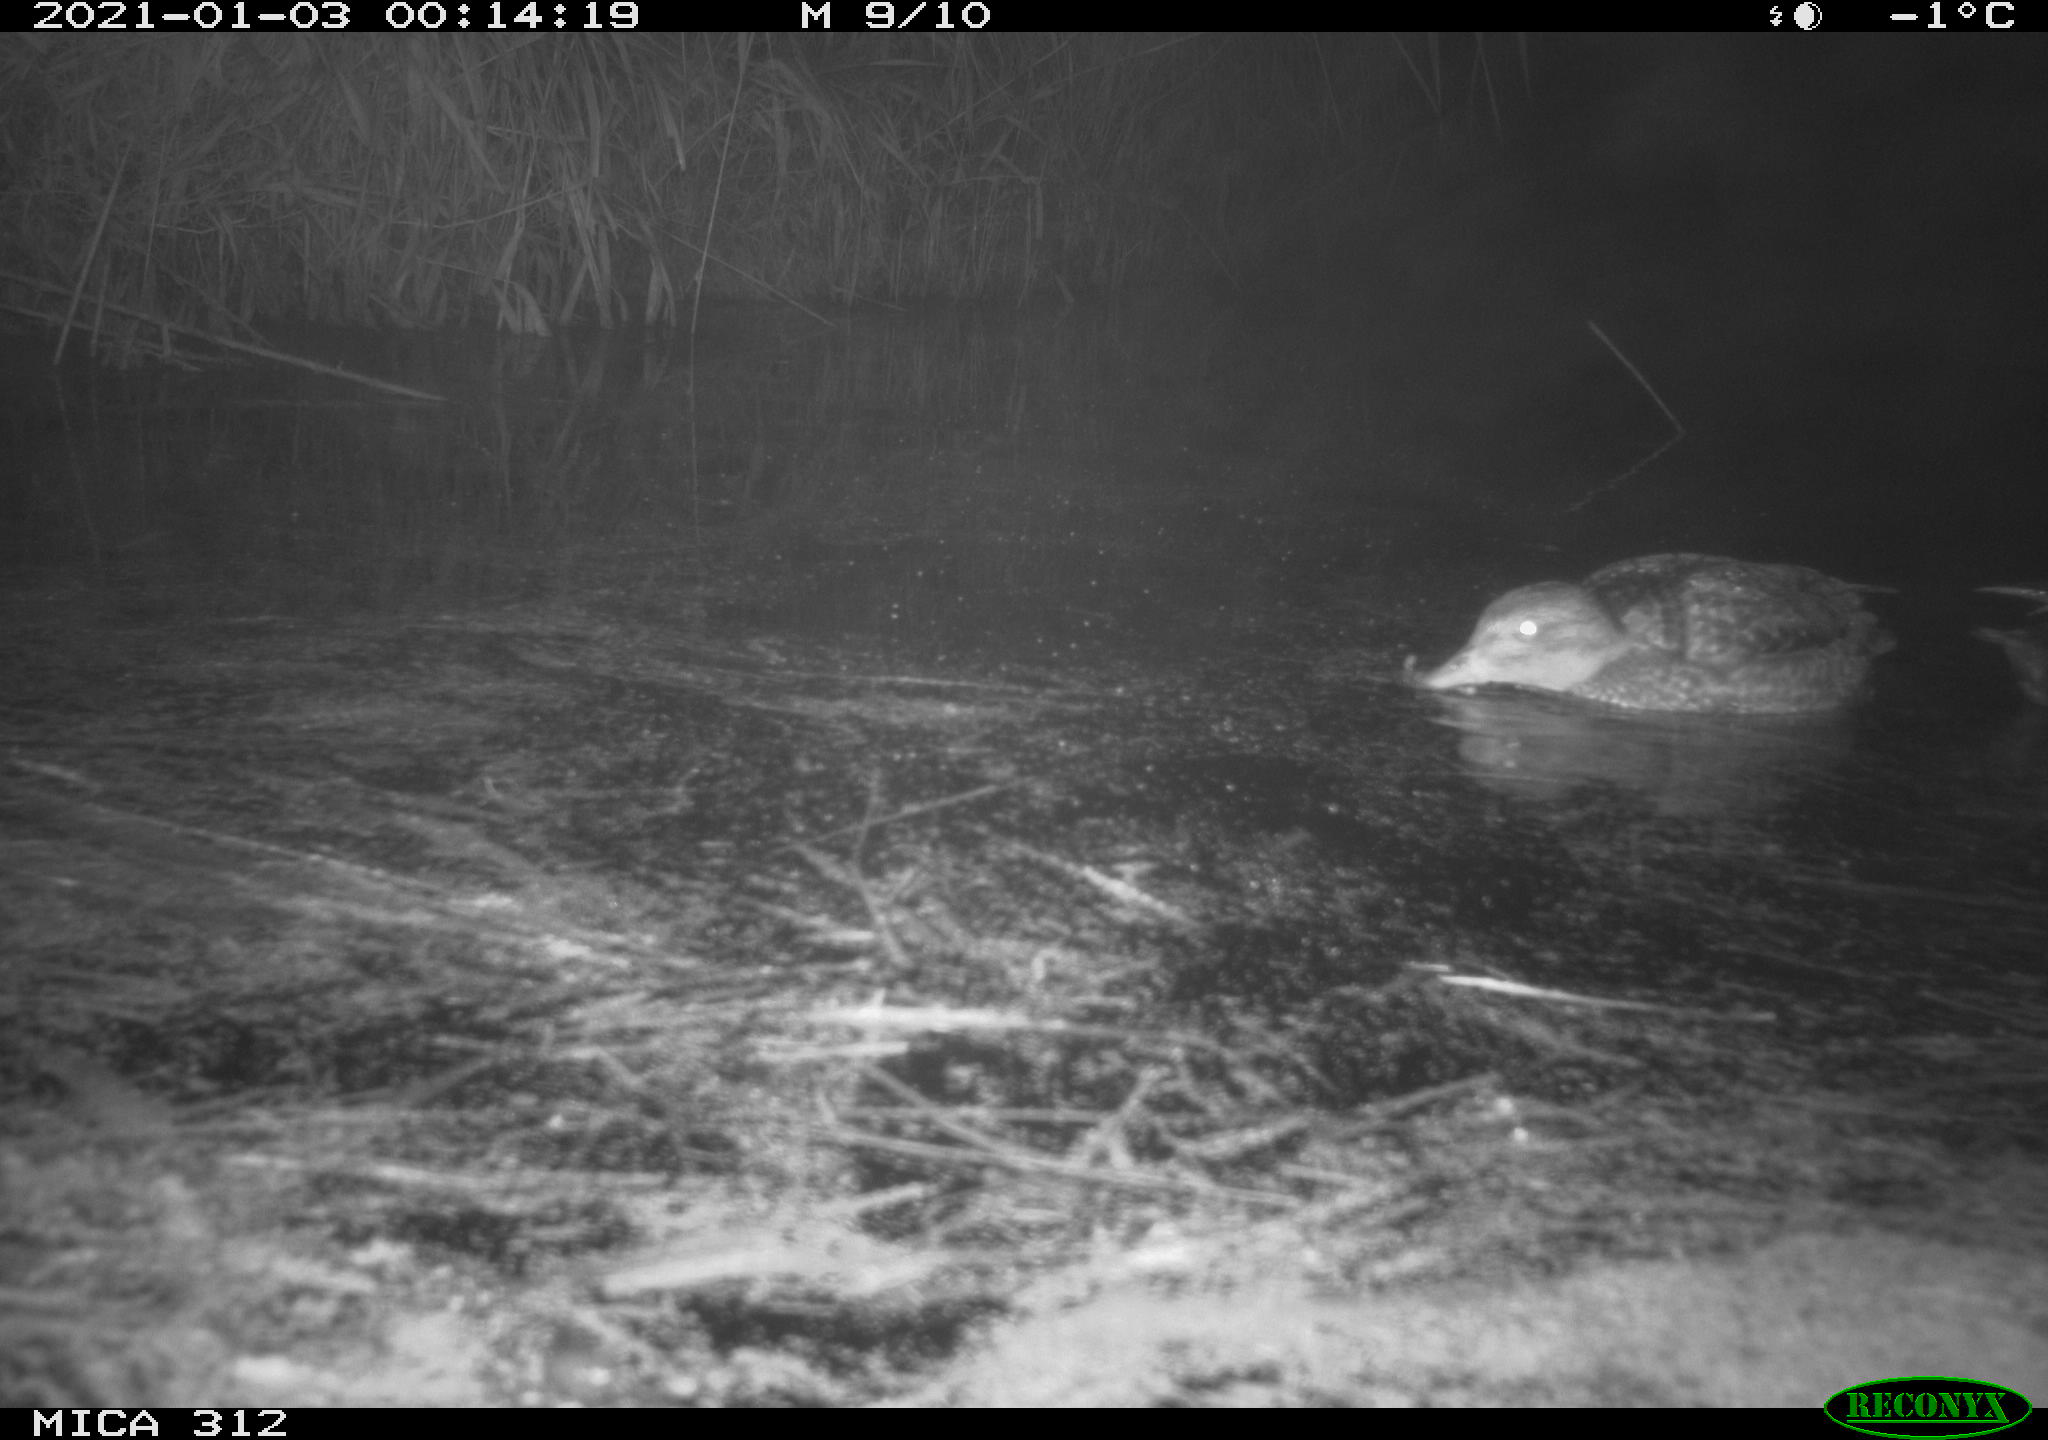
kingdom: Animalia
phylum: Chordata
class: Aves
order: Anseriformes
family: Anatidae
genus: Mareca
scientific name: Mareca strepera
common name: Gadwall
